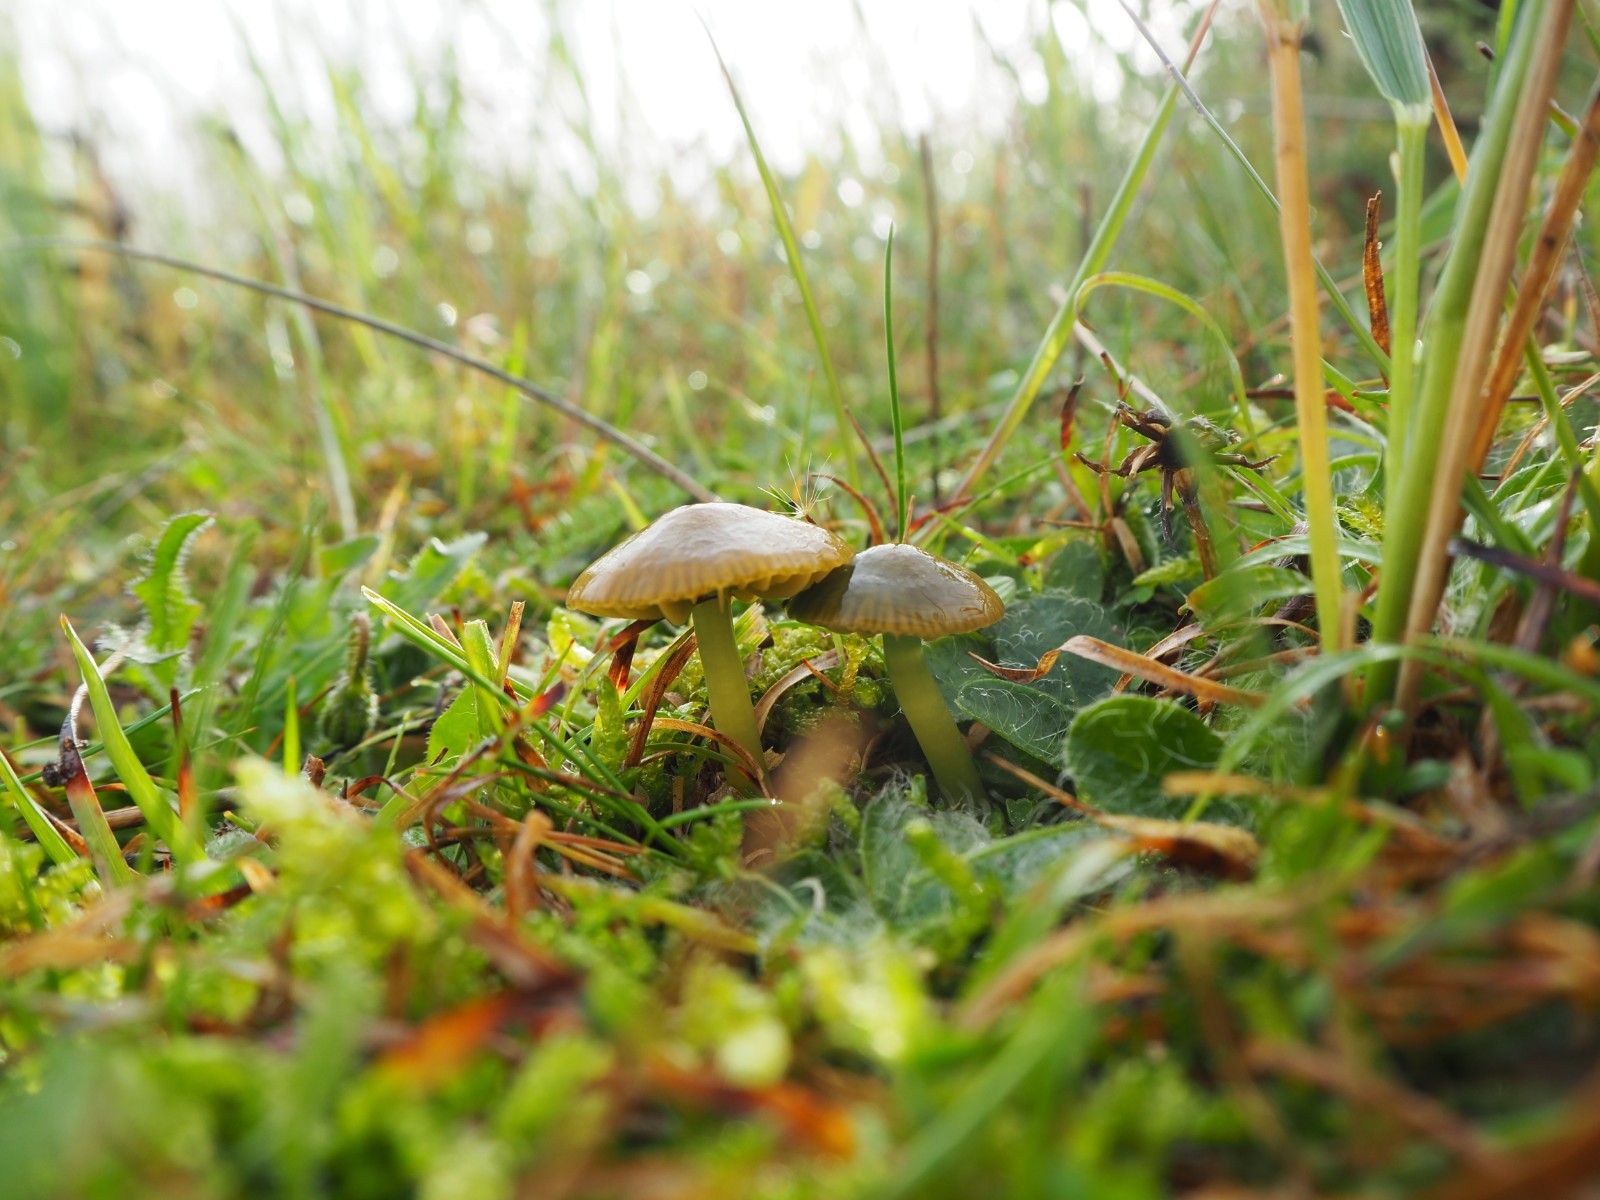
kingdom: Fungi
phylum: Basidiomycota
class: Agaricomycetes
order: Agaricales
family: Hygrophoraceae
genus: Gliophorus
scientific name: Gliophorus psittacinus
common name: papegøje-vokshat
